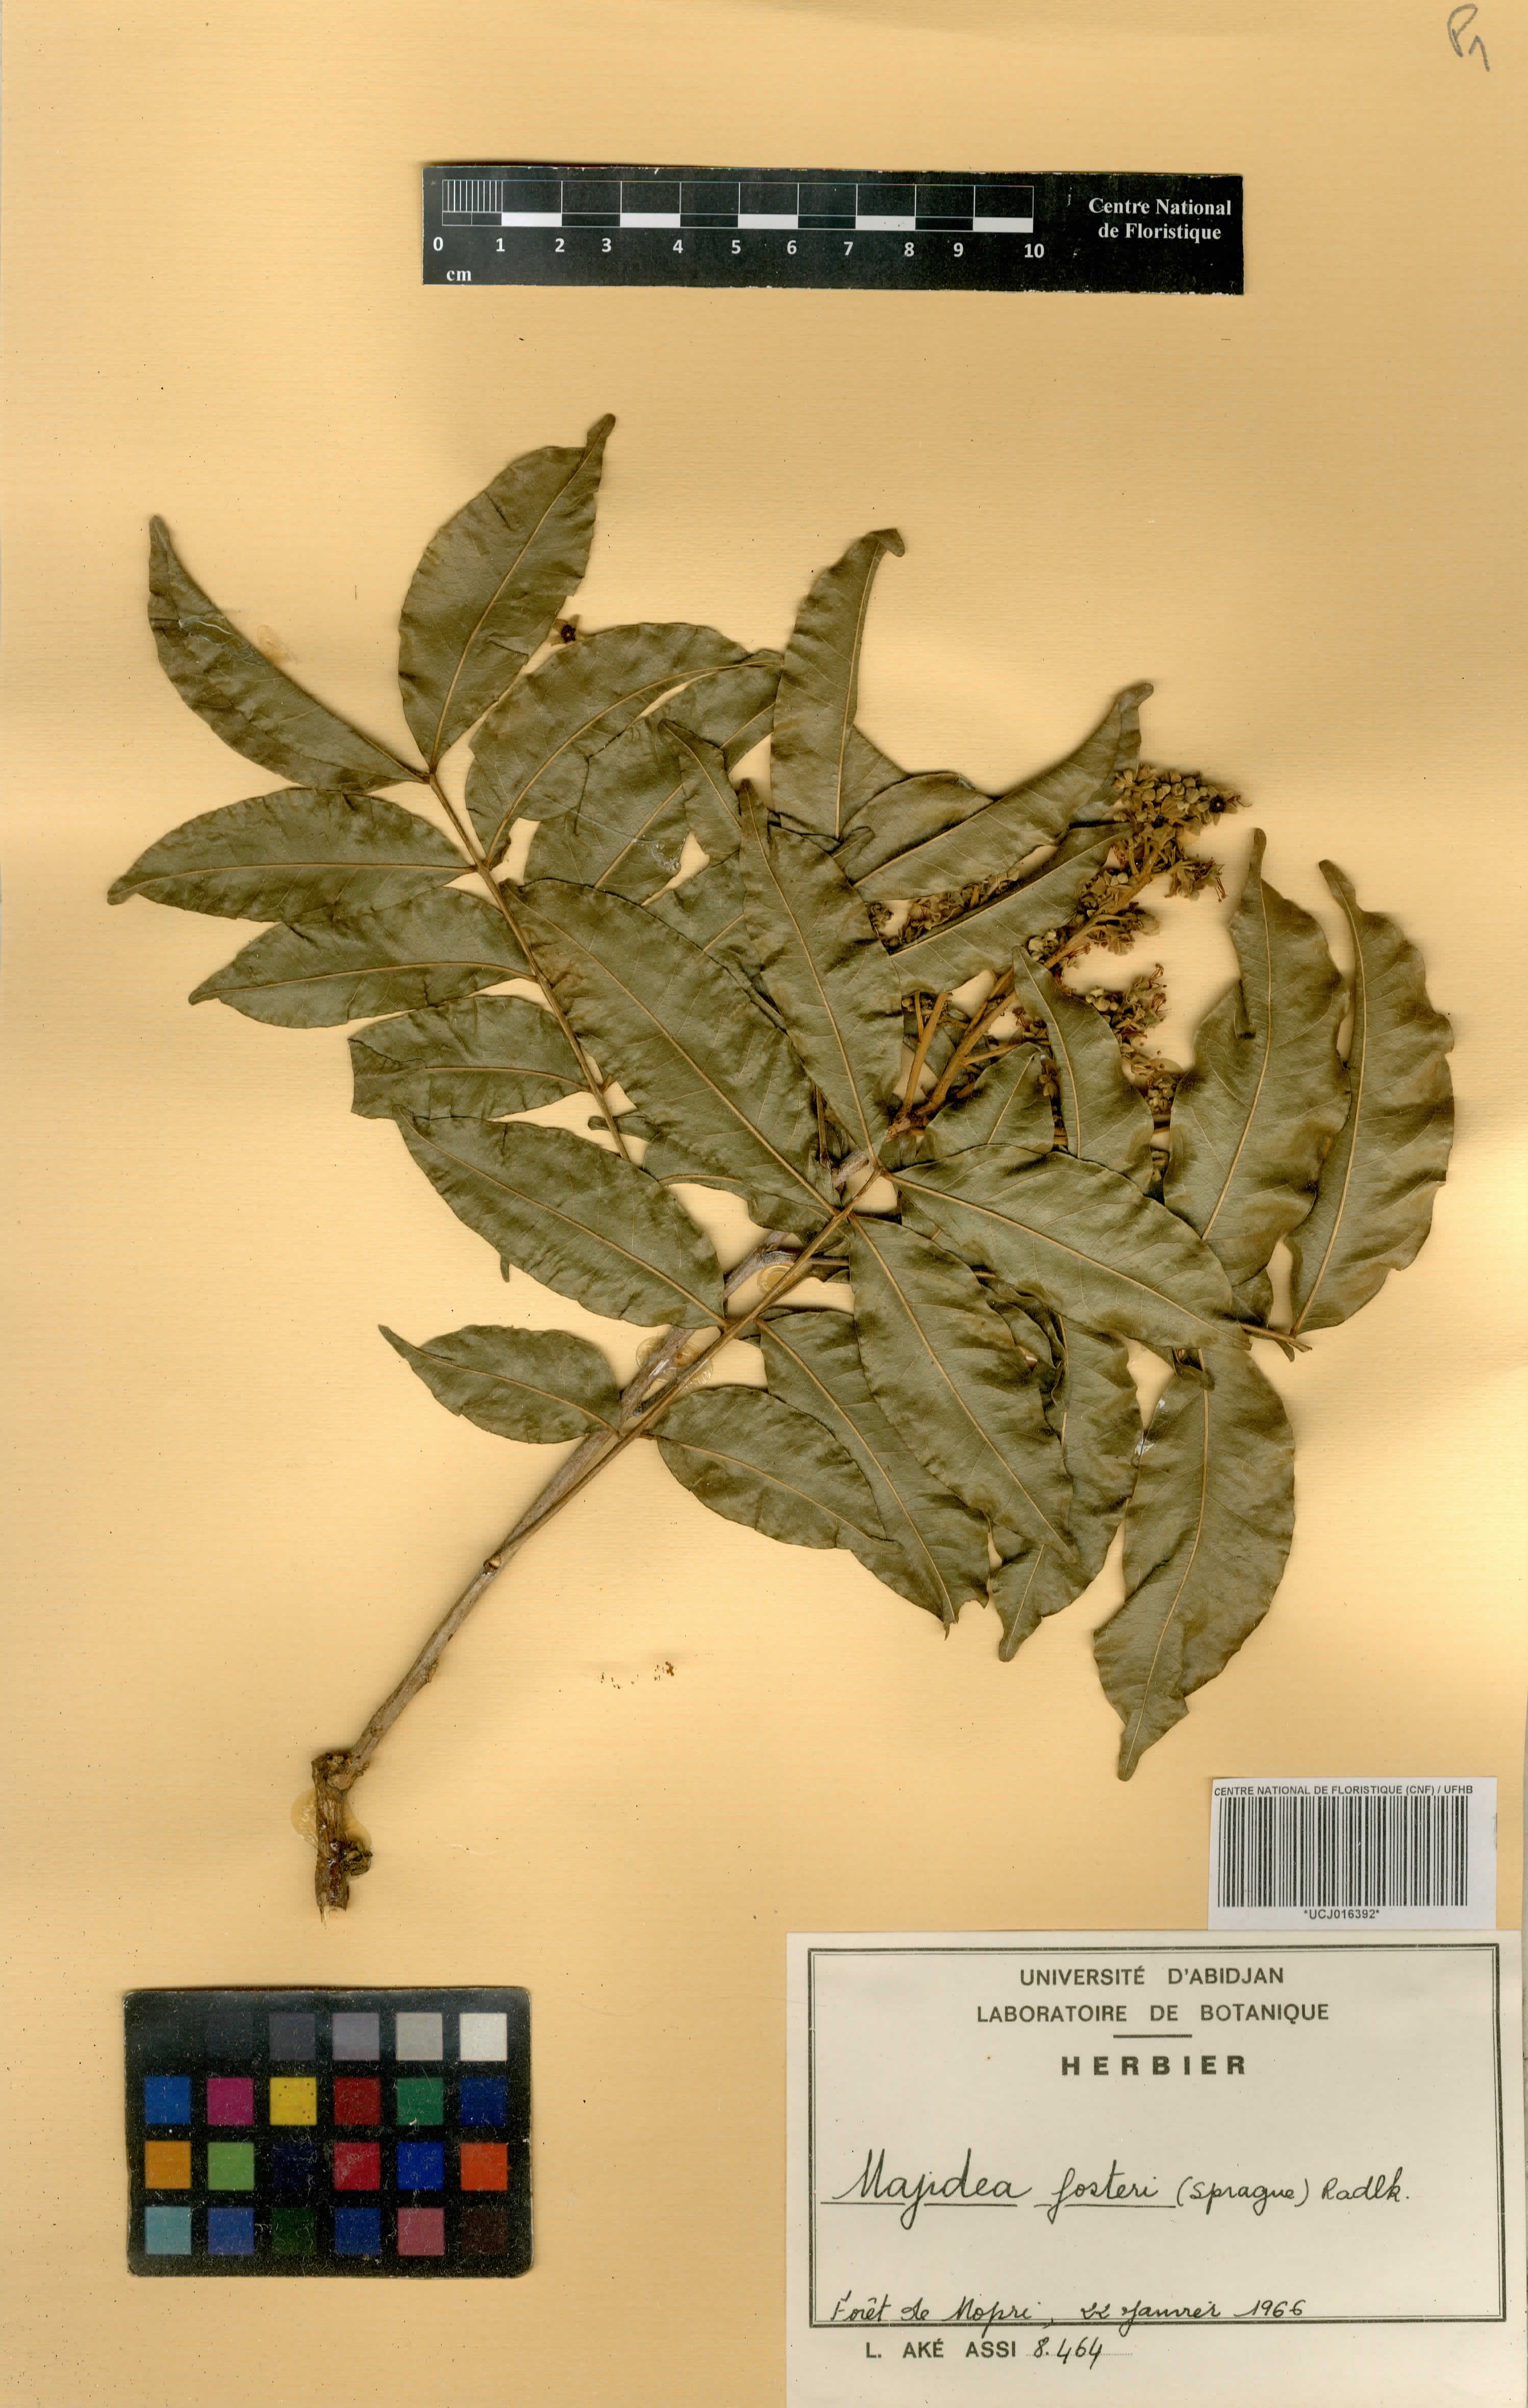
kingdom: Plantae
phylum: Tracheophyta
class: Magnoliopsida
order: Sapindales
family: Sapindaceae
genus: Majidea
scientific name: Majidea fosteri
